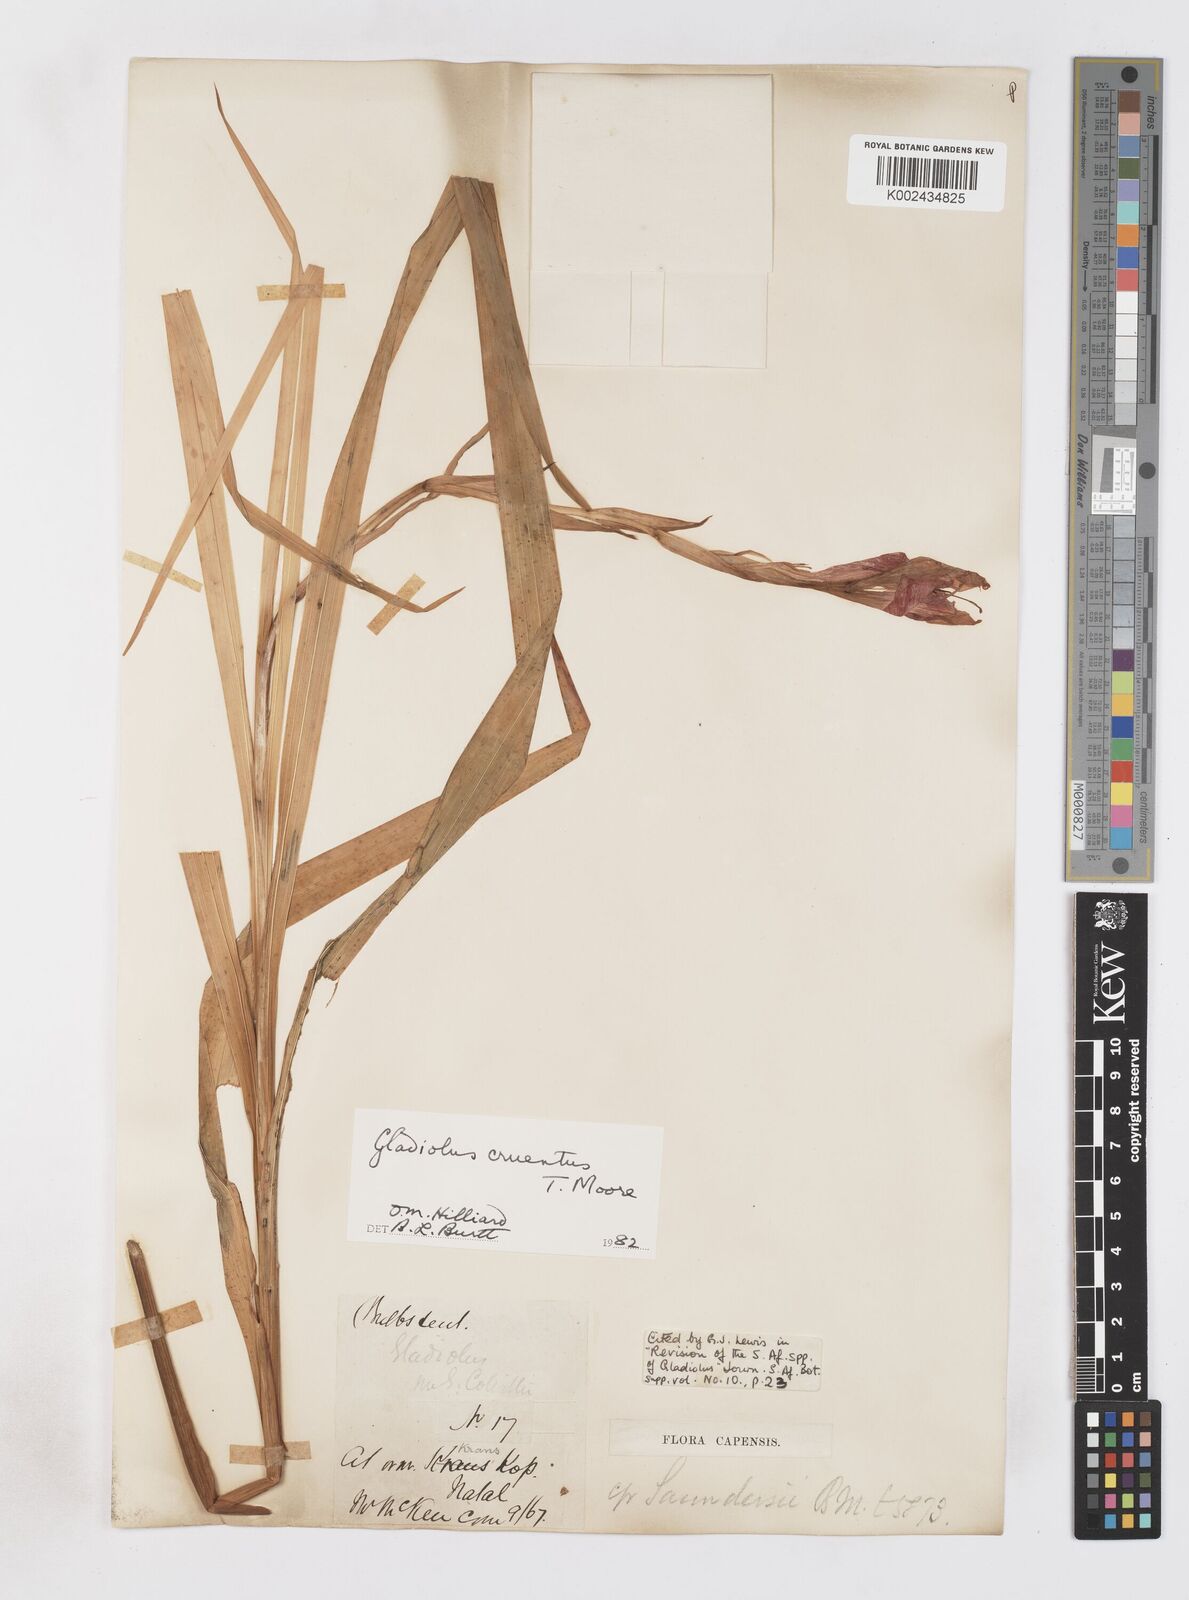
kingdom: Plantae
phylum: Tracheophyta
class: Liliopsida
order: Asparagales
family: Iridaceae
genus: Gladiolus
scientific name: Gladiolus cruentus
